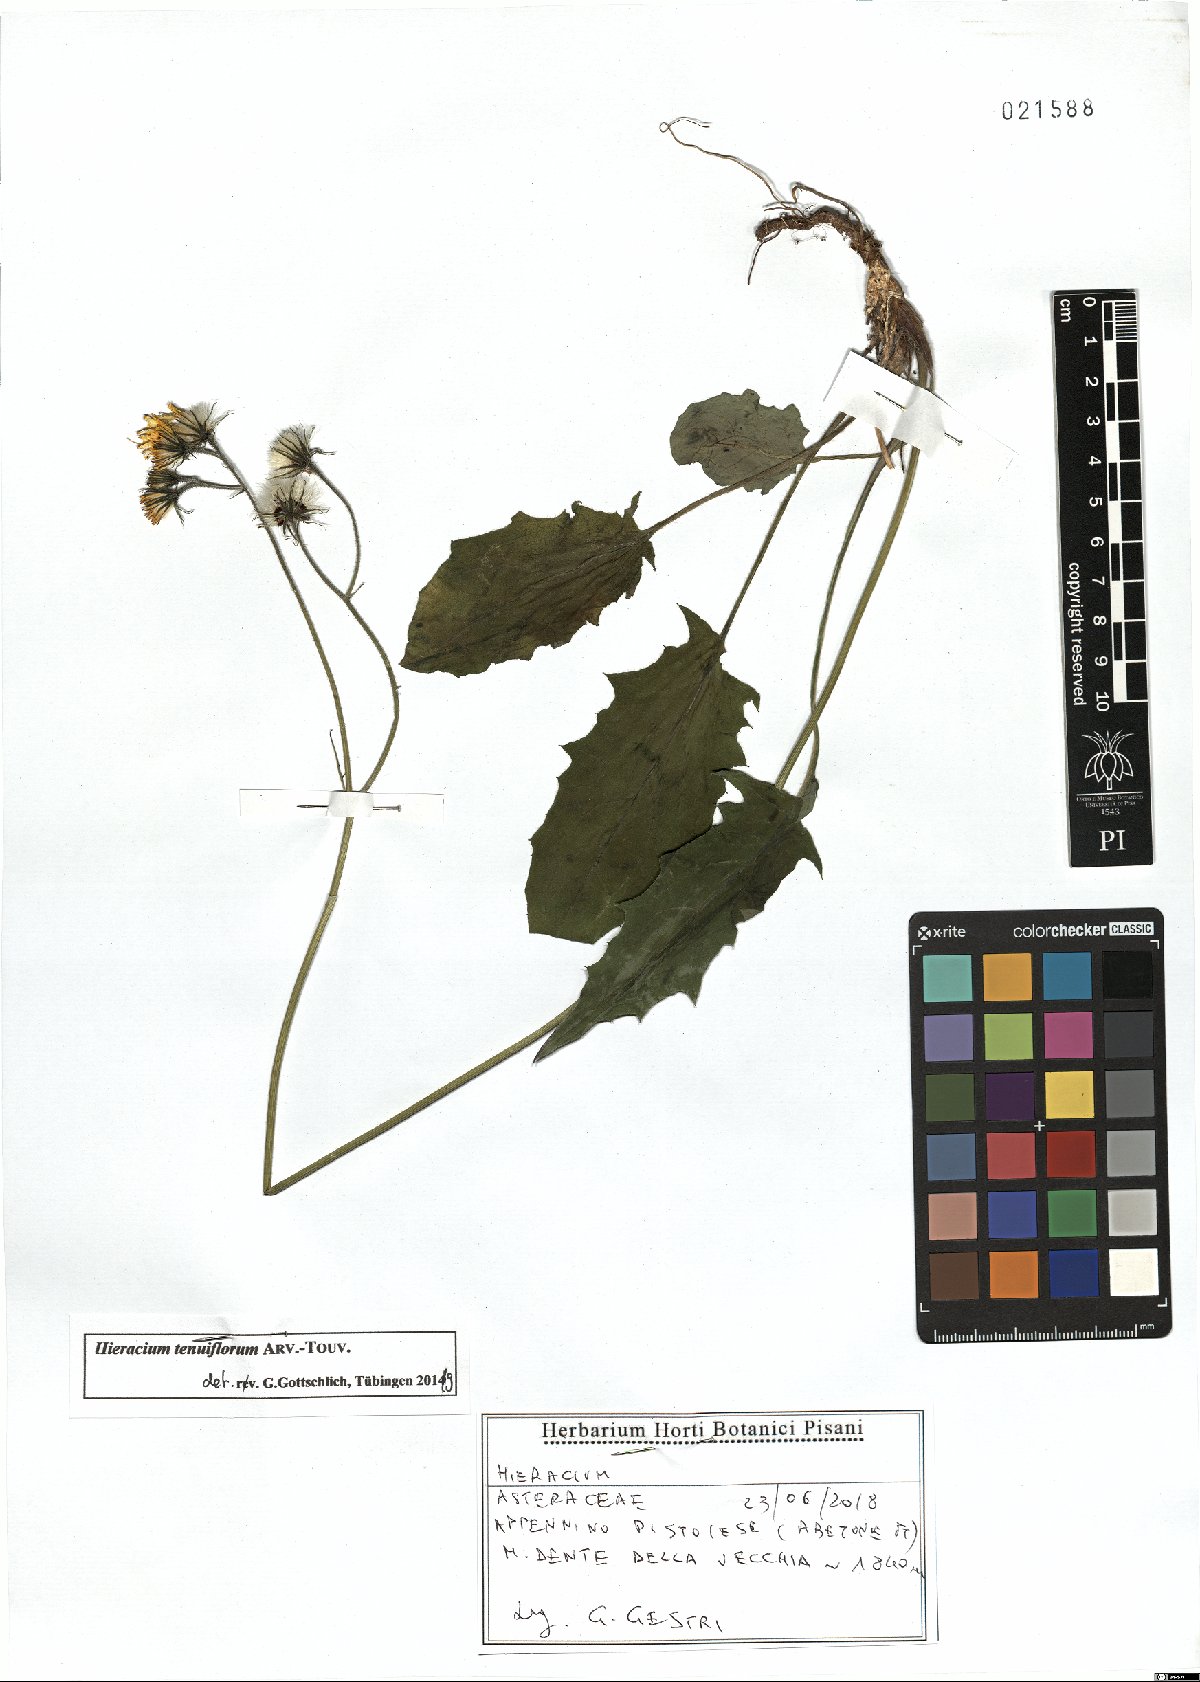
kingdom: Plantae
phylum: Tracheophyta
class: Magnoliopsida
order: Asterales
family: Asteraceae
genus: Hieracium
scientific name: Hieracium tenuiflorum
